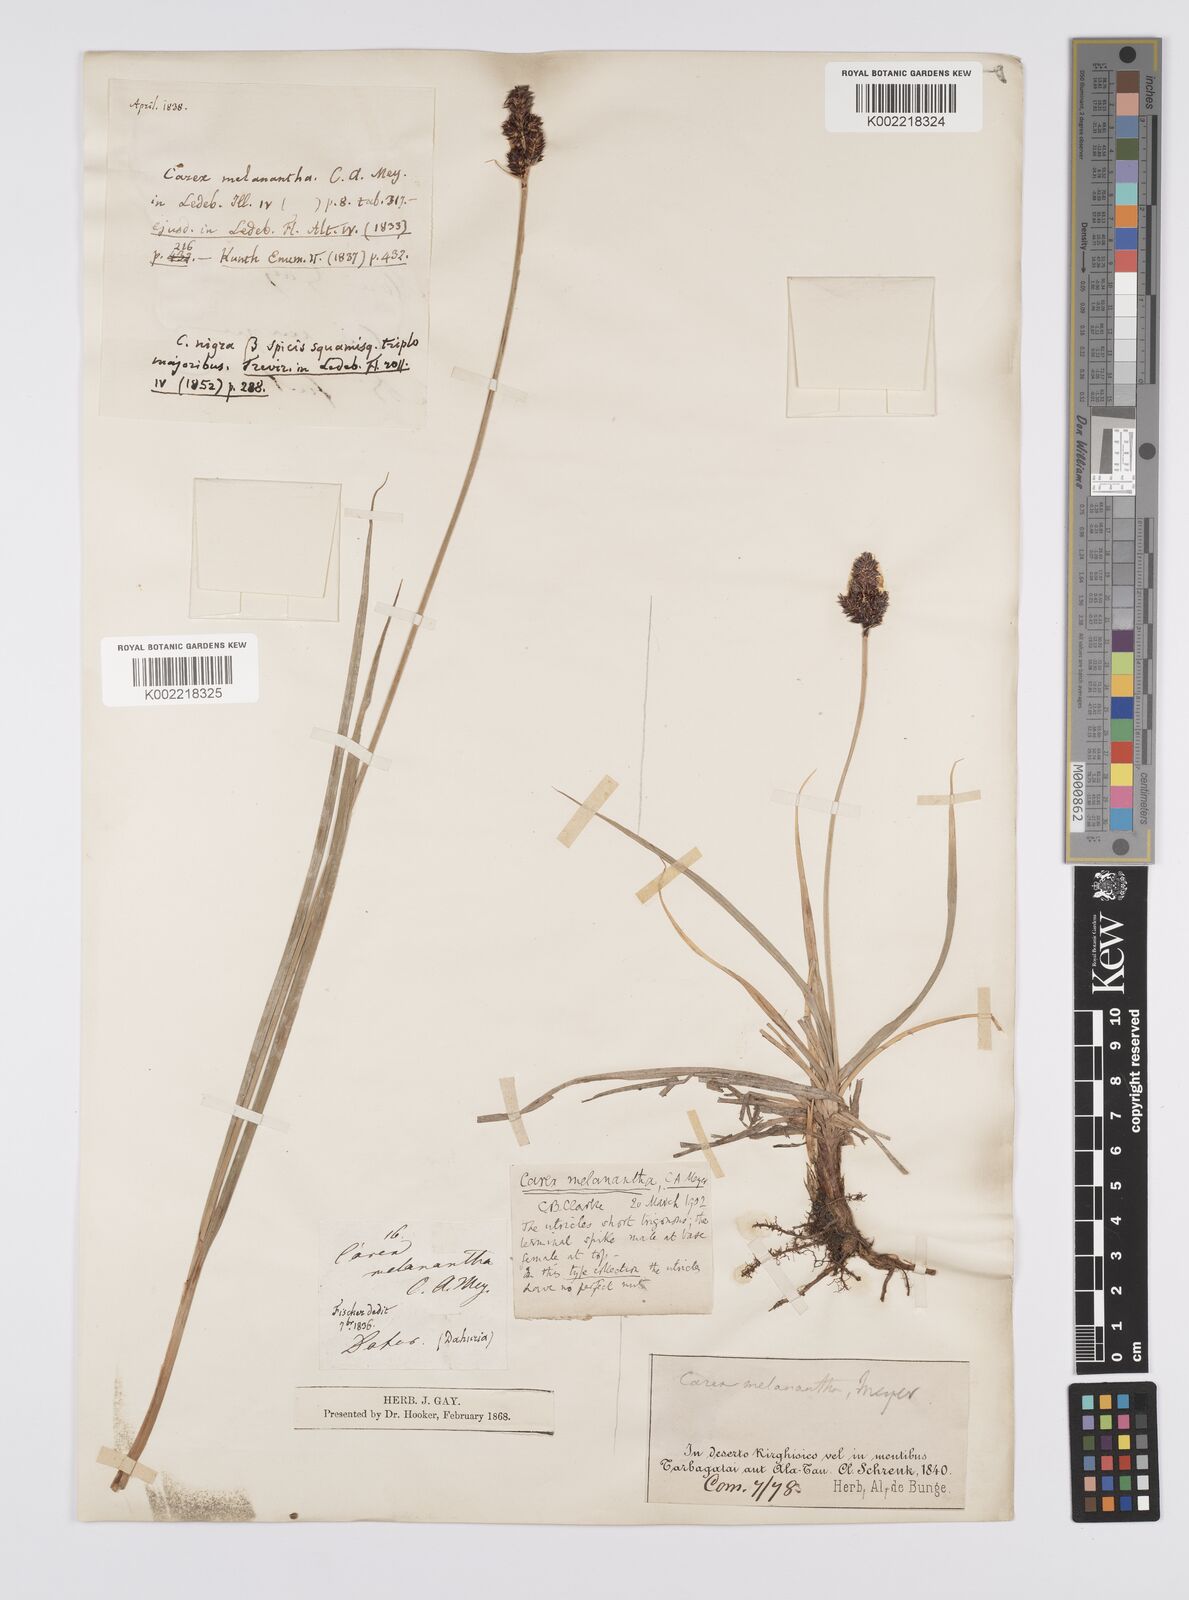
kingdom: Plantae
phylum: Tracheophyta
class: Liliopsida
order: Poales
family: Cyperaceae
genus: Carex
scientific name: Carex melanantha
